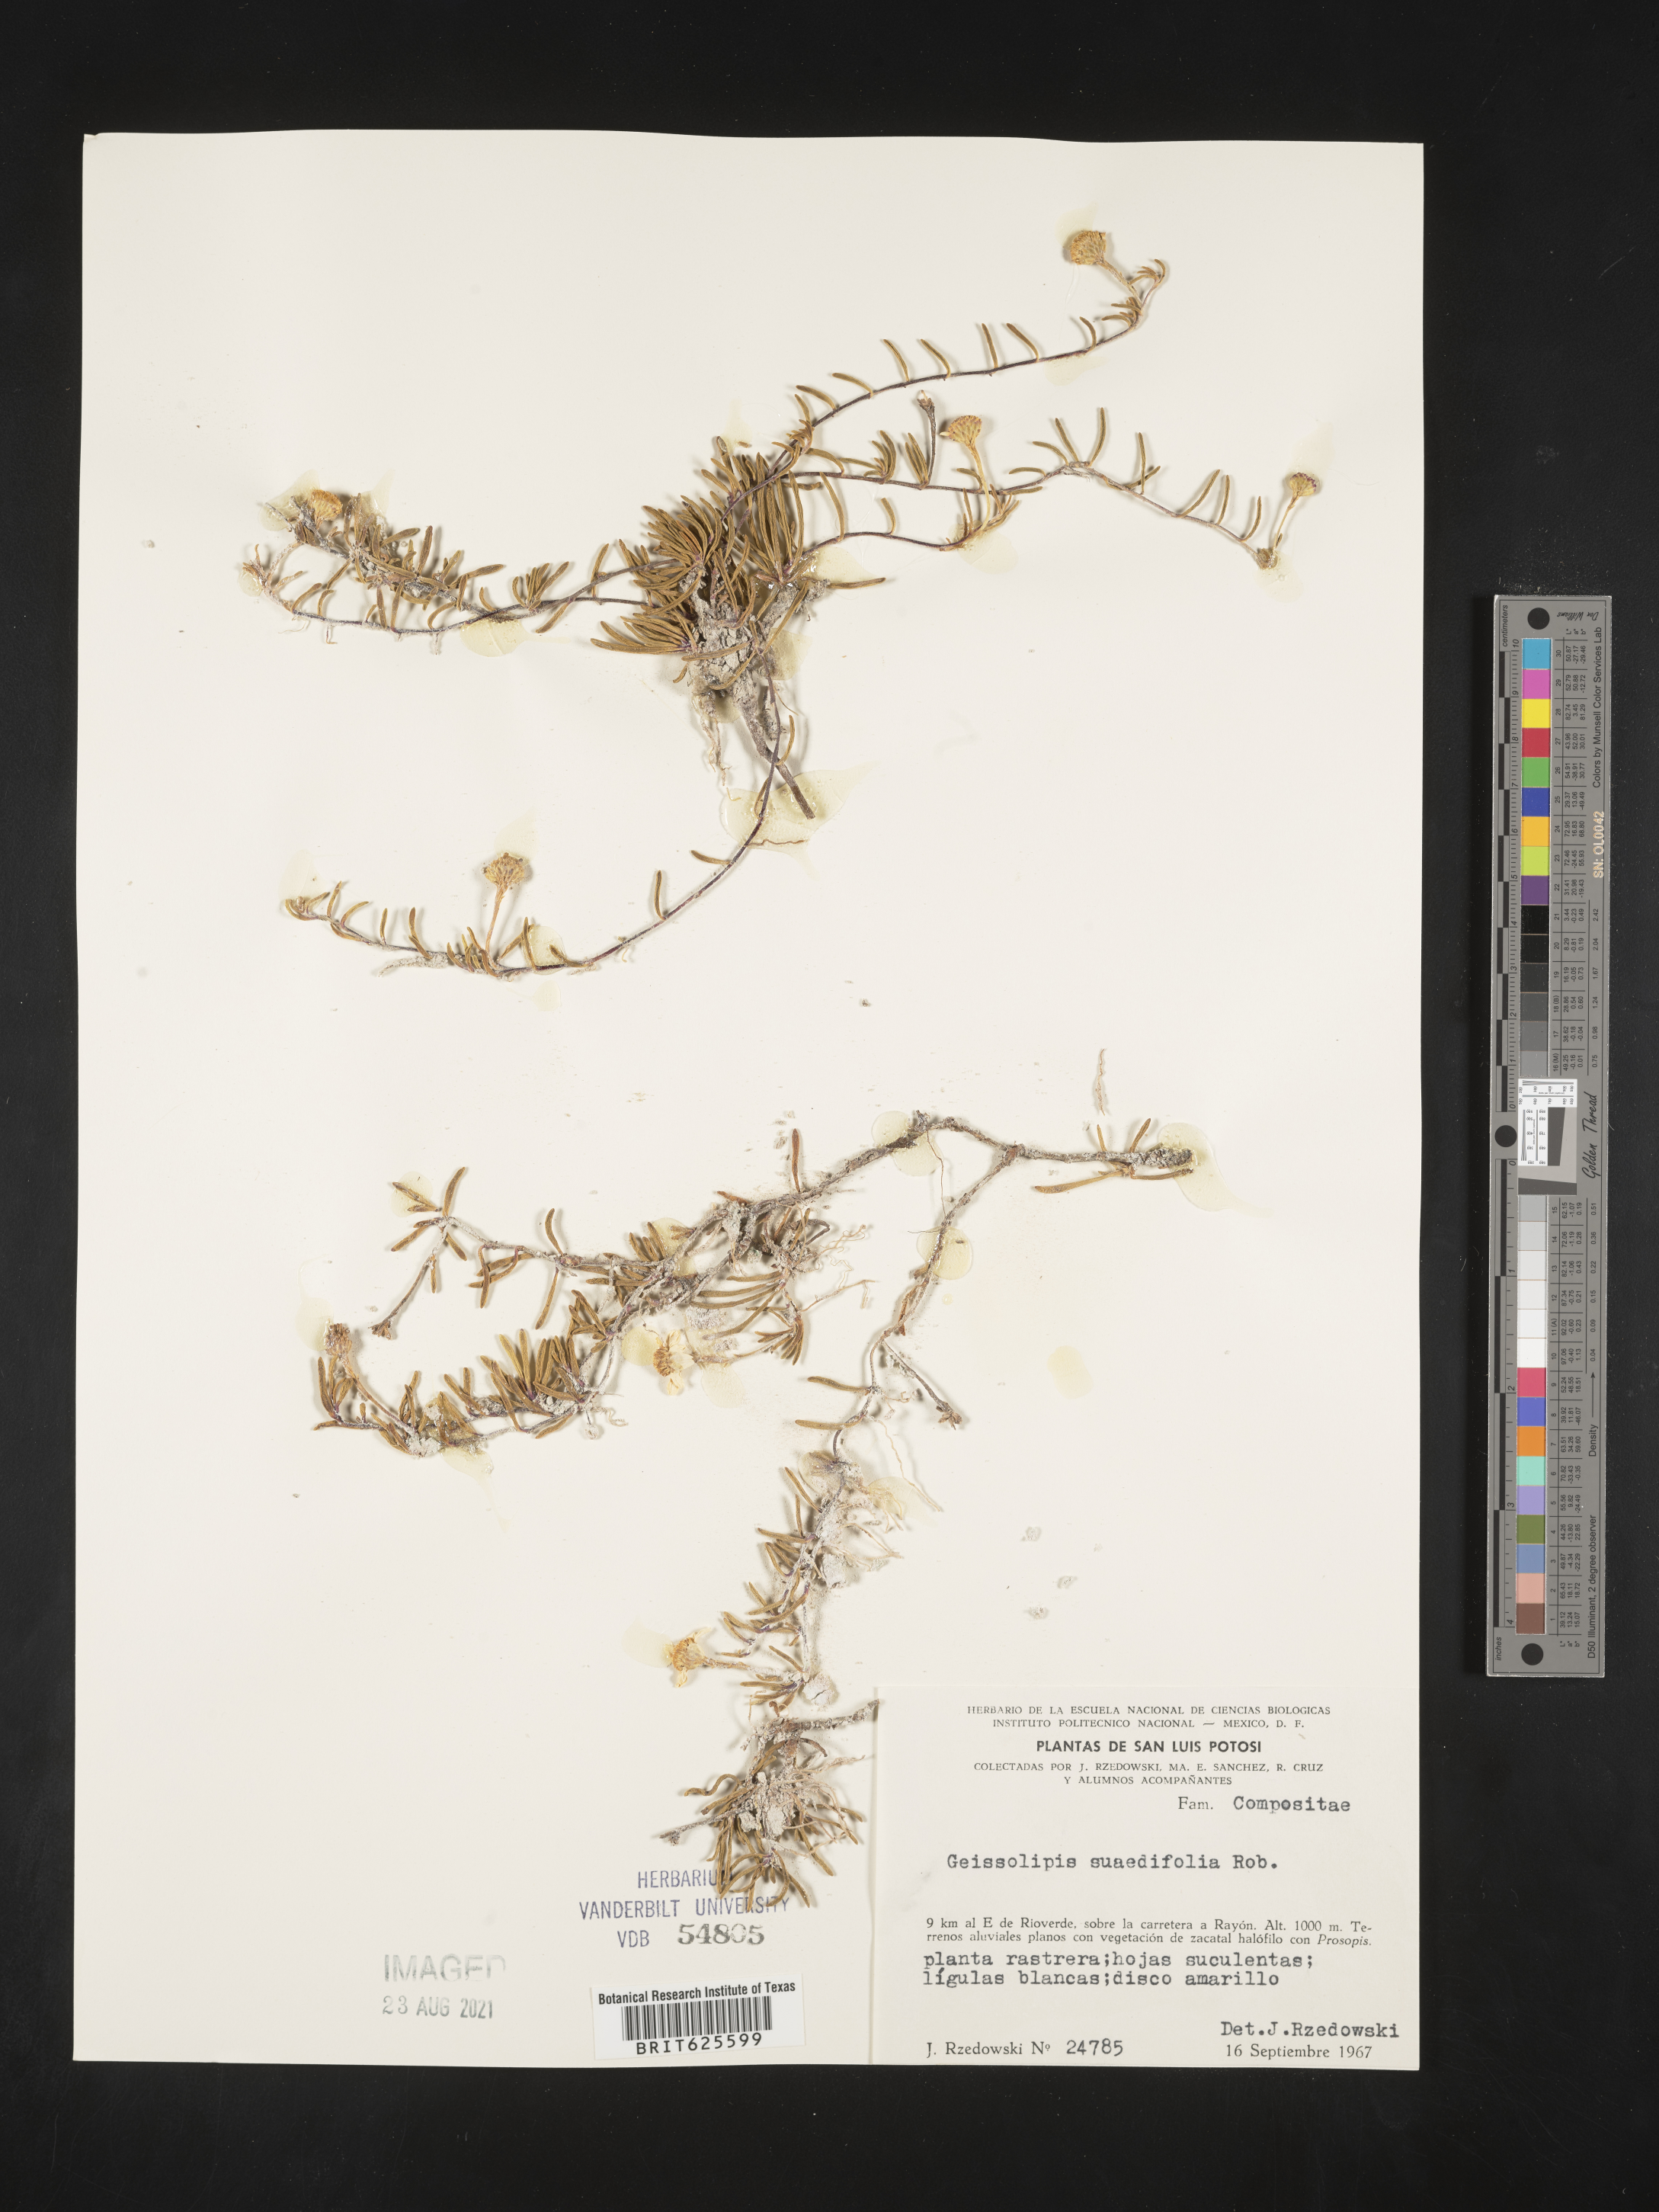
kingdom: Plantae
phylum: Tracheophyta
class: Magnoliopsida
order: Asterales
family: Asteraceae
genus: Geissolepis
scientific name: Geissolepis suaedifolia
